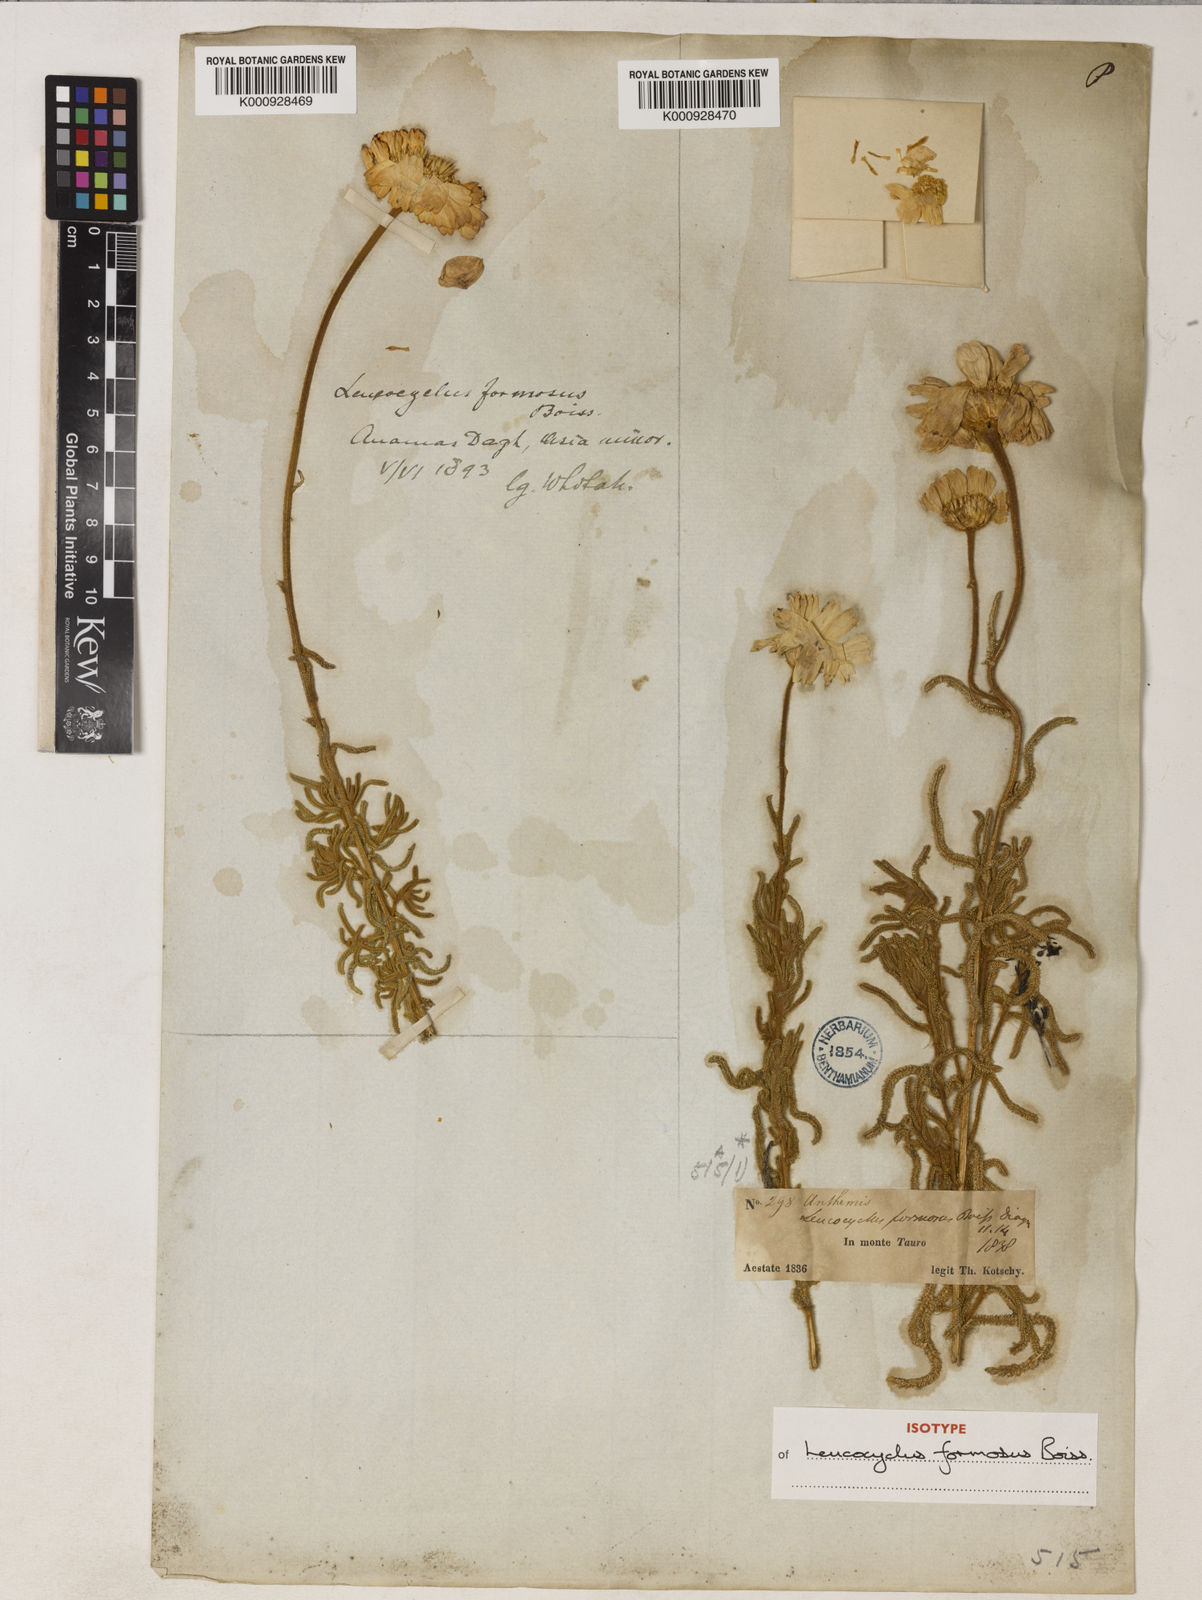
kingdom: Plantae
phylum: Tracheophyta
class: Magnoliopsida
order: Asterales
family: Asteraceae
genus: Achillea
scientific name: Achillea formosa
